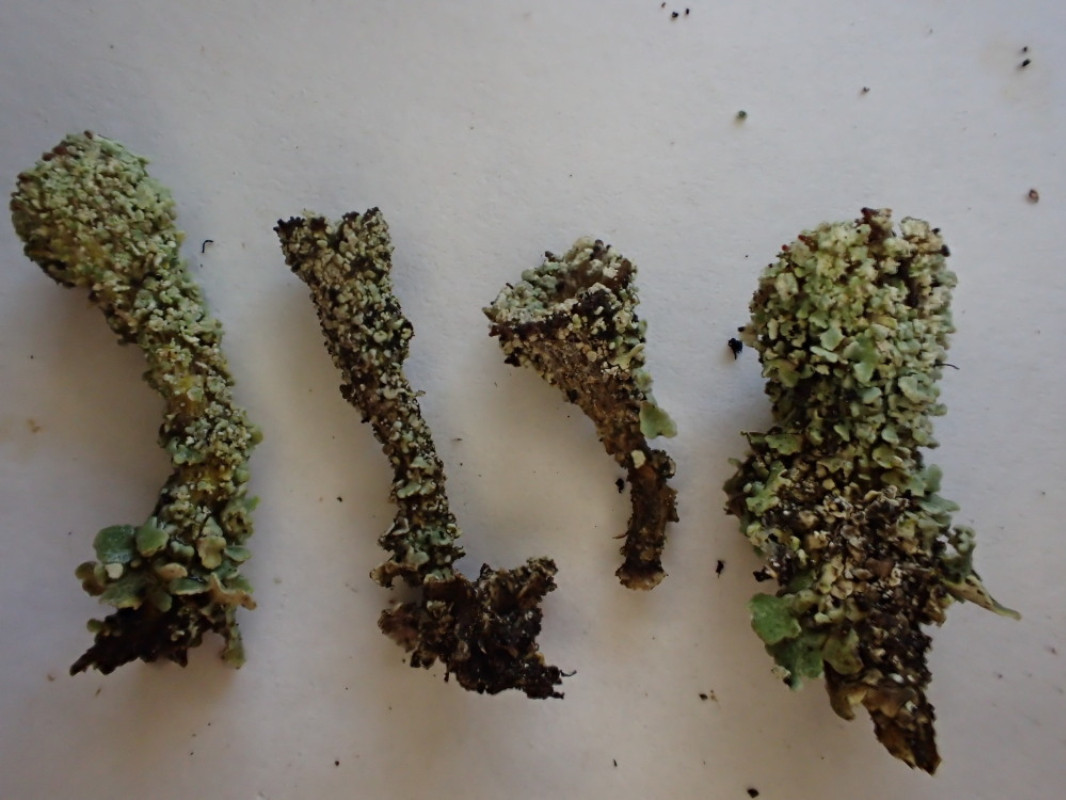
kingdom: Fungi
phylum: Ascomycota
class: Lecanoromycetes
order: Lecanorales
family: Cladoniaceae
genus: Cladonia
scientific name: Cladonia diversa
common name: rød bægerlav
